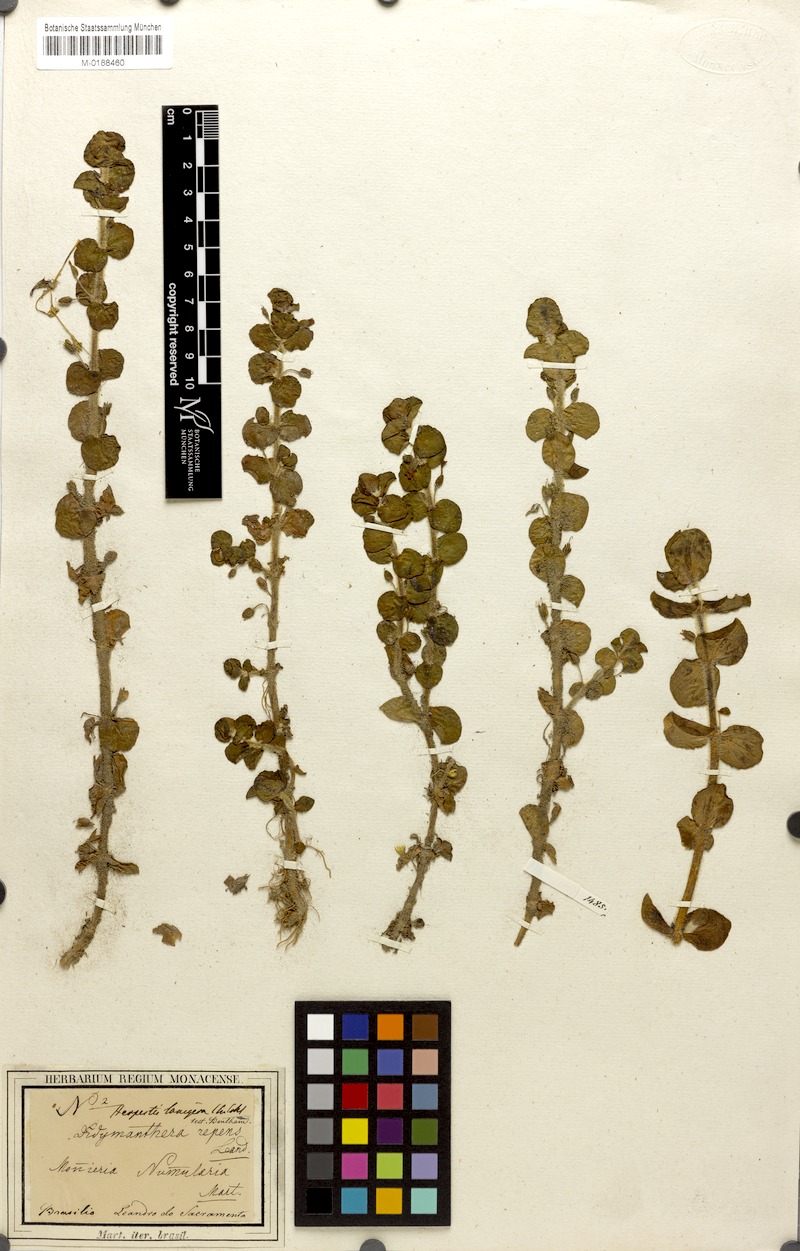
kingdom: Plantae
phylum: Tracheophyta
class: Magnoliopsida
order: Lamiales
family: Plantaginaceae
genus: Bacopa
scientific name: Bacopa lanigera
